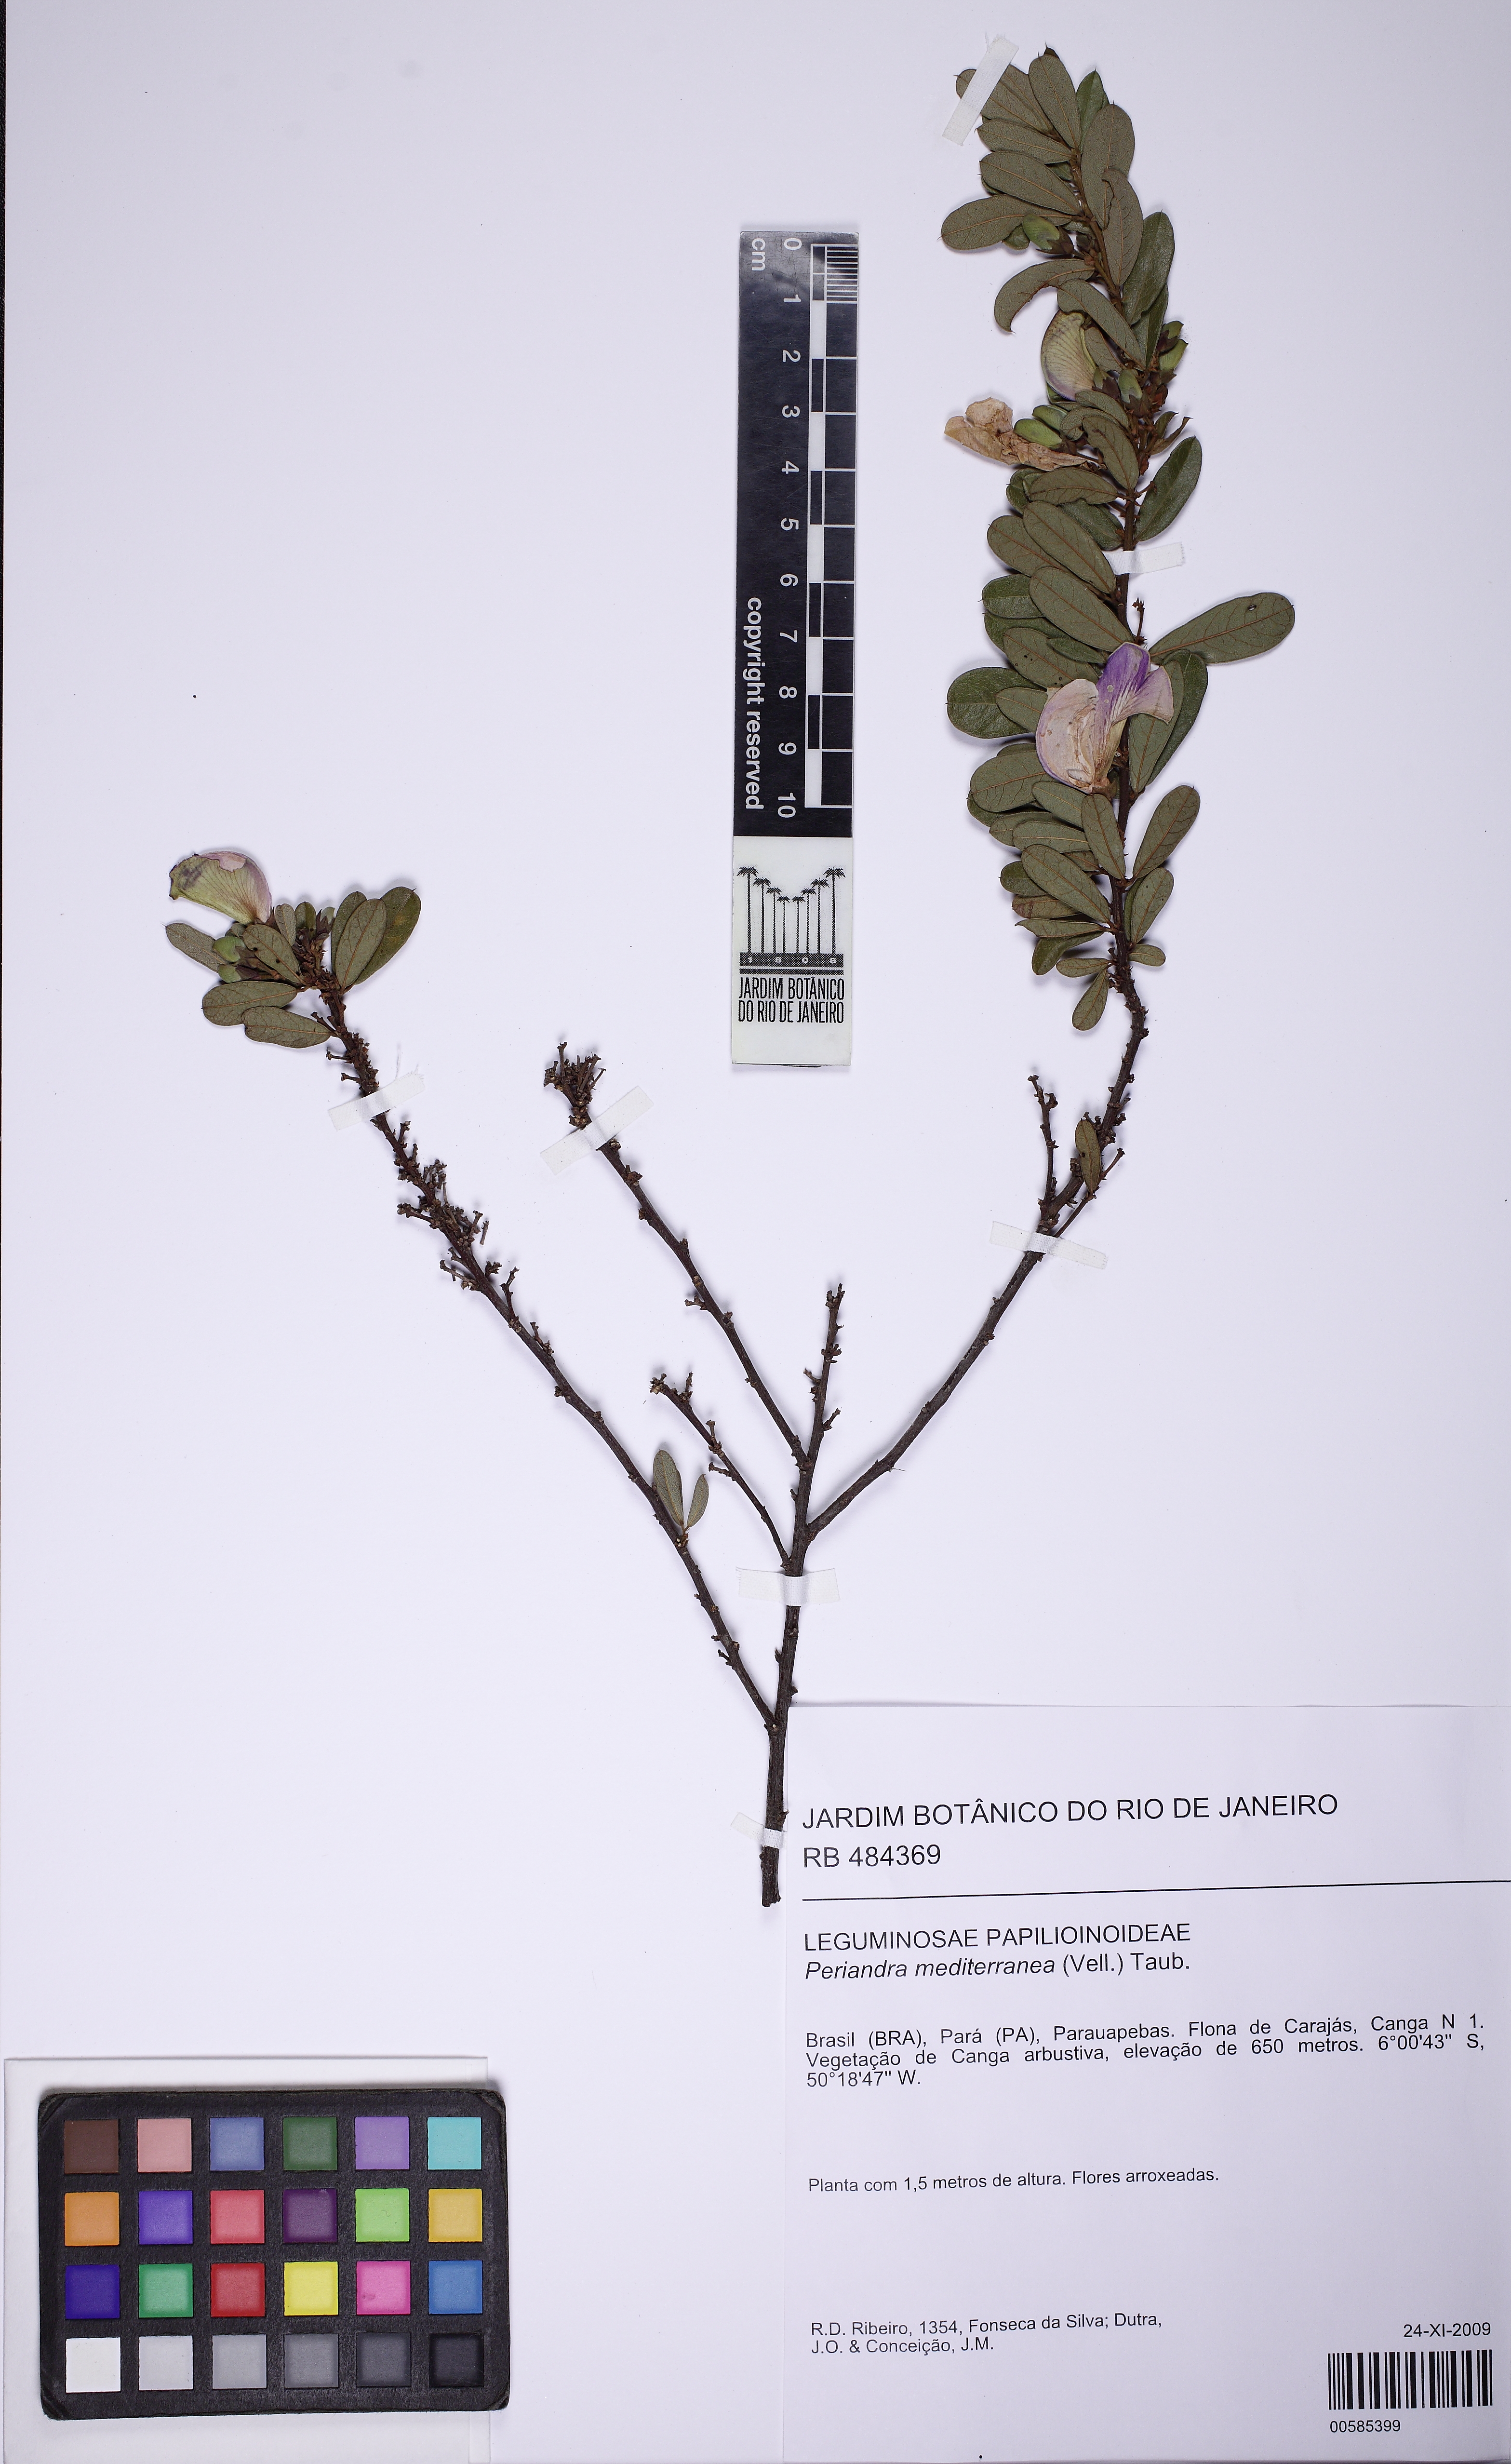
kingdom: Plantae
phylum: Tracheophyta
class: Magnoliopsida
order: Fabales
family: Fabaceae
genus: Periandra
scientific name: Periandra mediterranea
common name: Brazilian licorice
